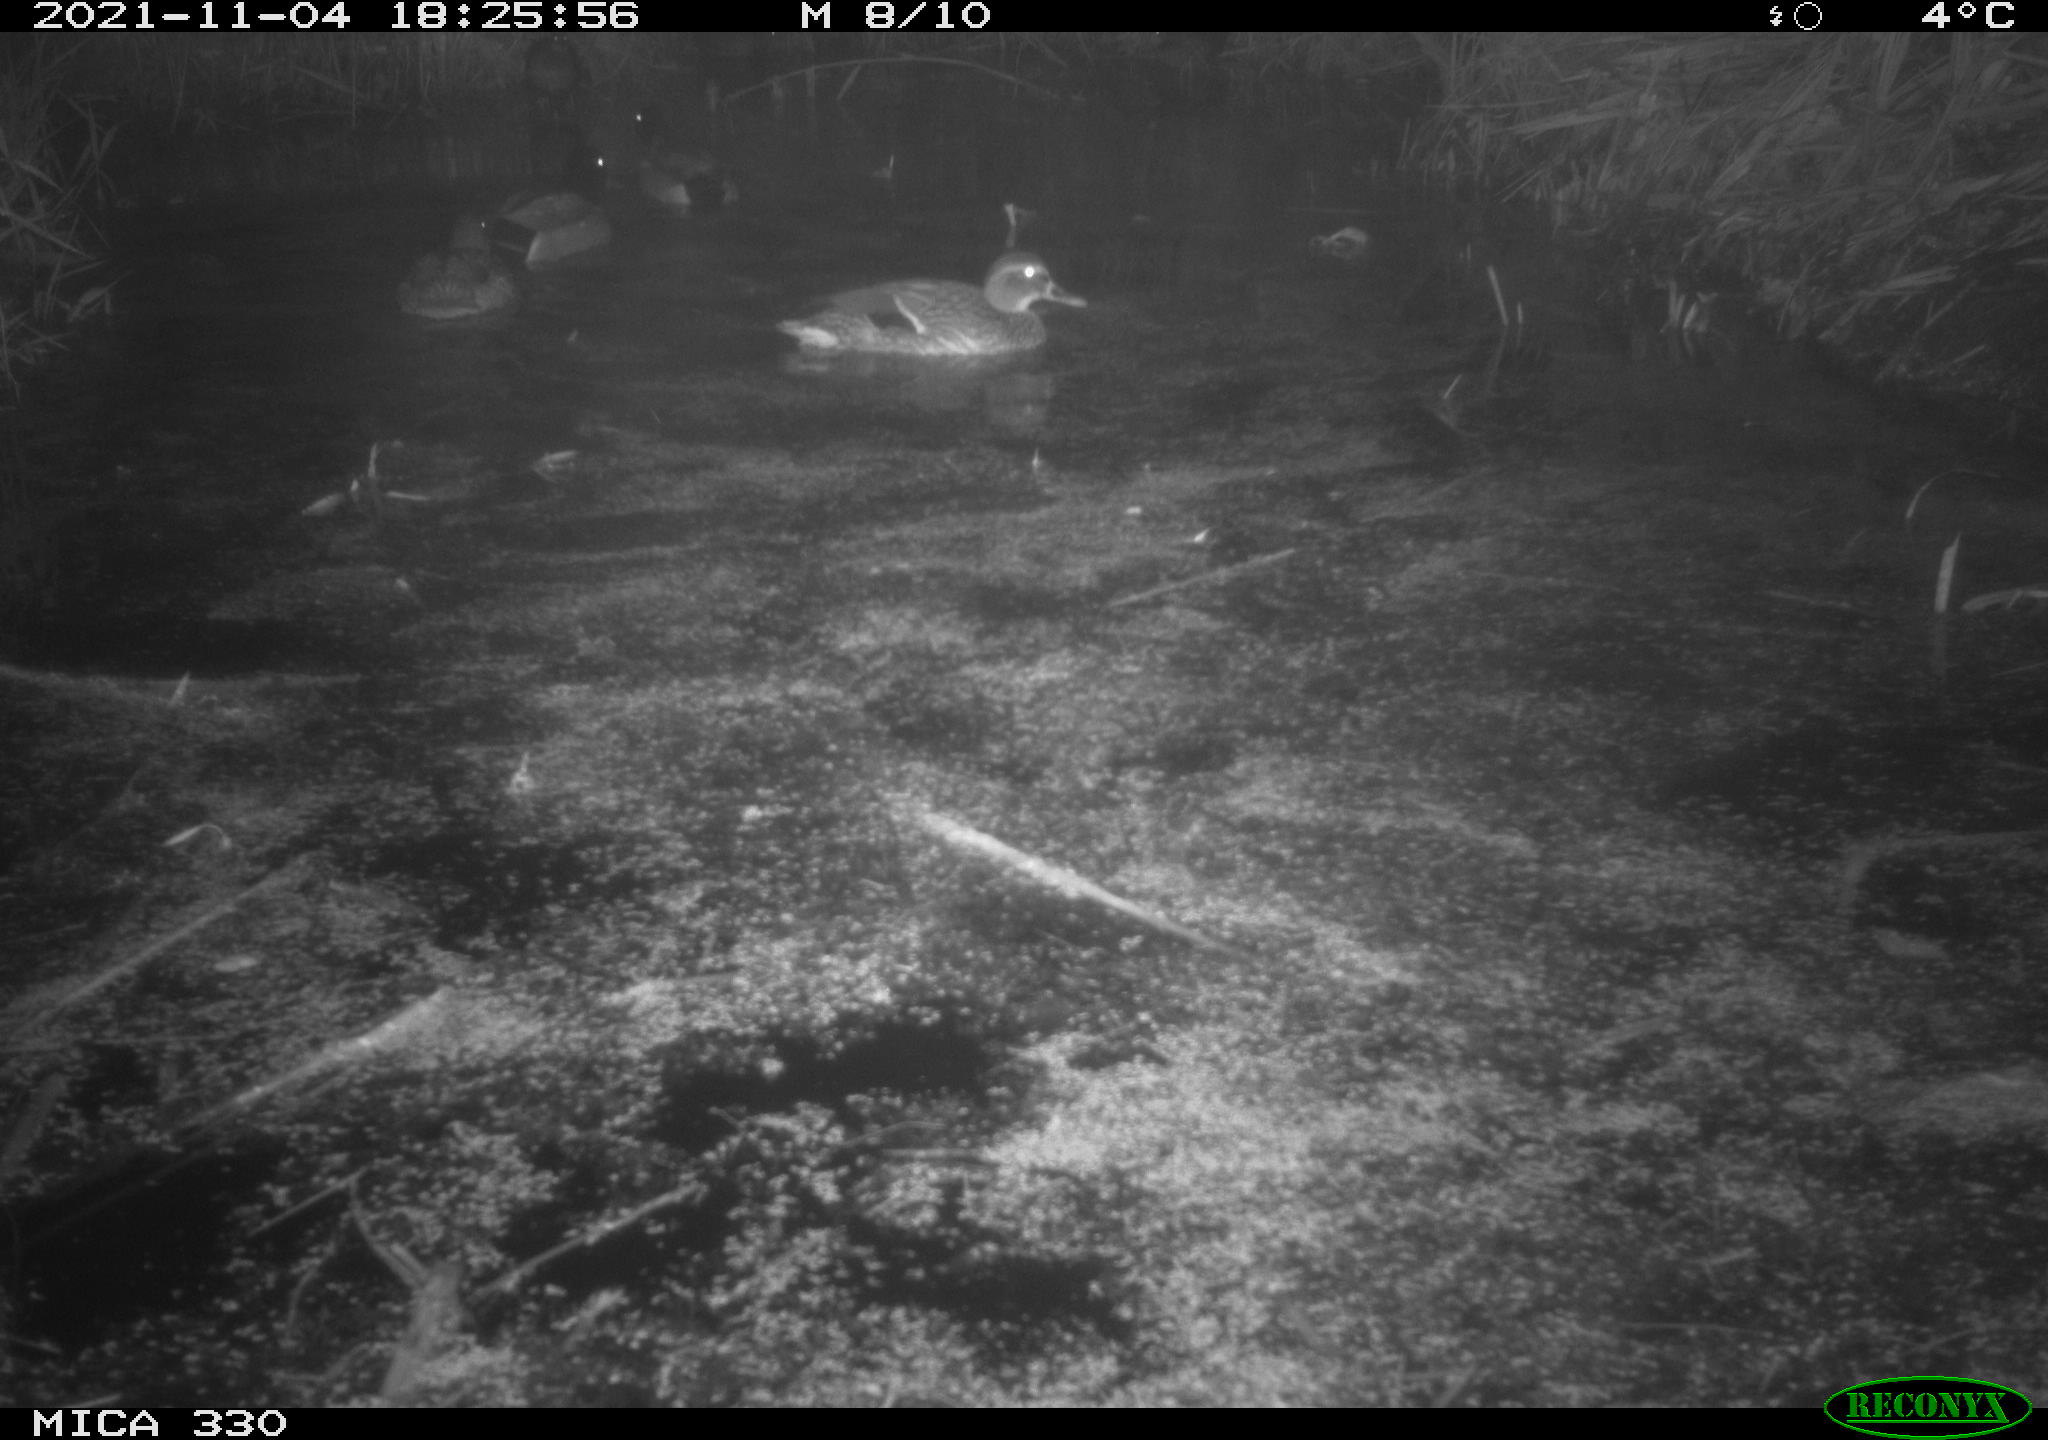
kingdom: Animalia
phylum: Chordata
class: Aves
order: Anseriformes
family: Anatidae
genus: Anas
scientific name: Anas platyrhynchos
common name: Mallard
